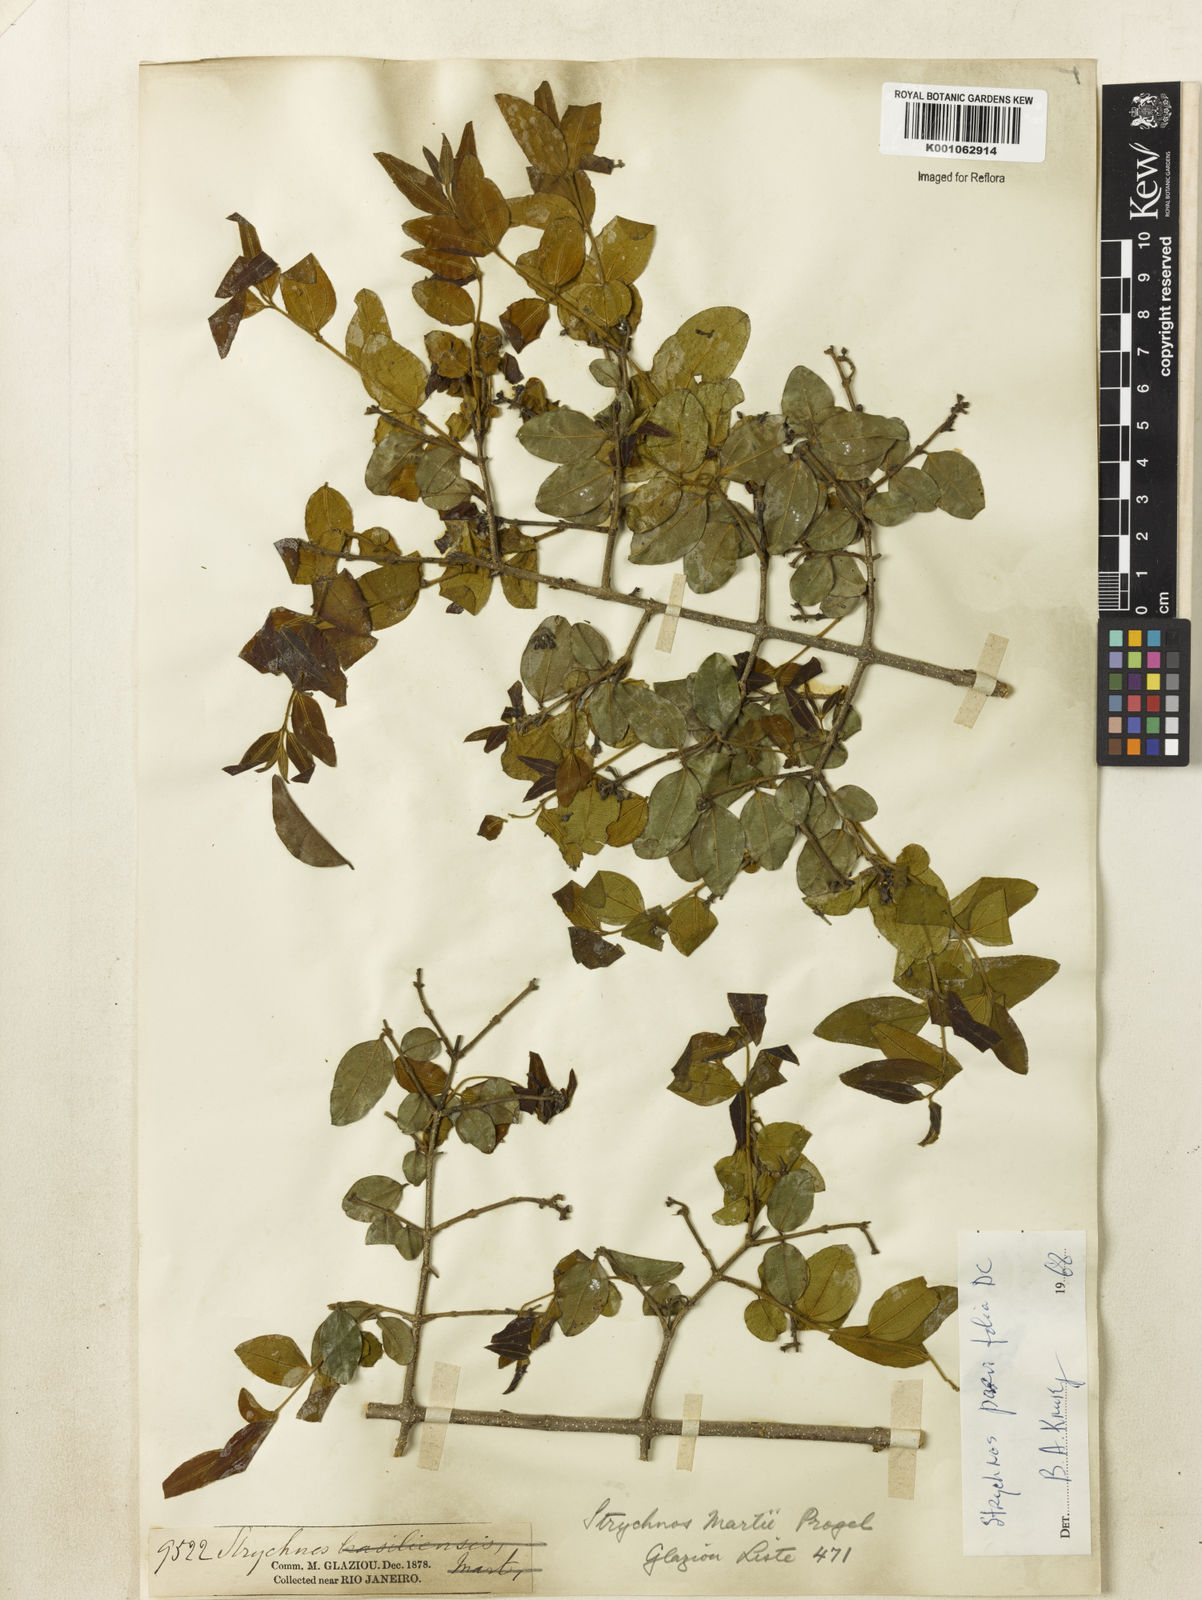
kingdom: Plantae
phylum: Tracheophyta
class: Magnoliopsida
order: Gentianales
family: Loganiaceae
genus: Strychnos
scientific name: Strychnos parvifolia
